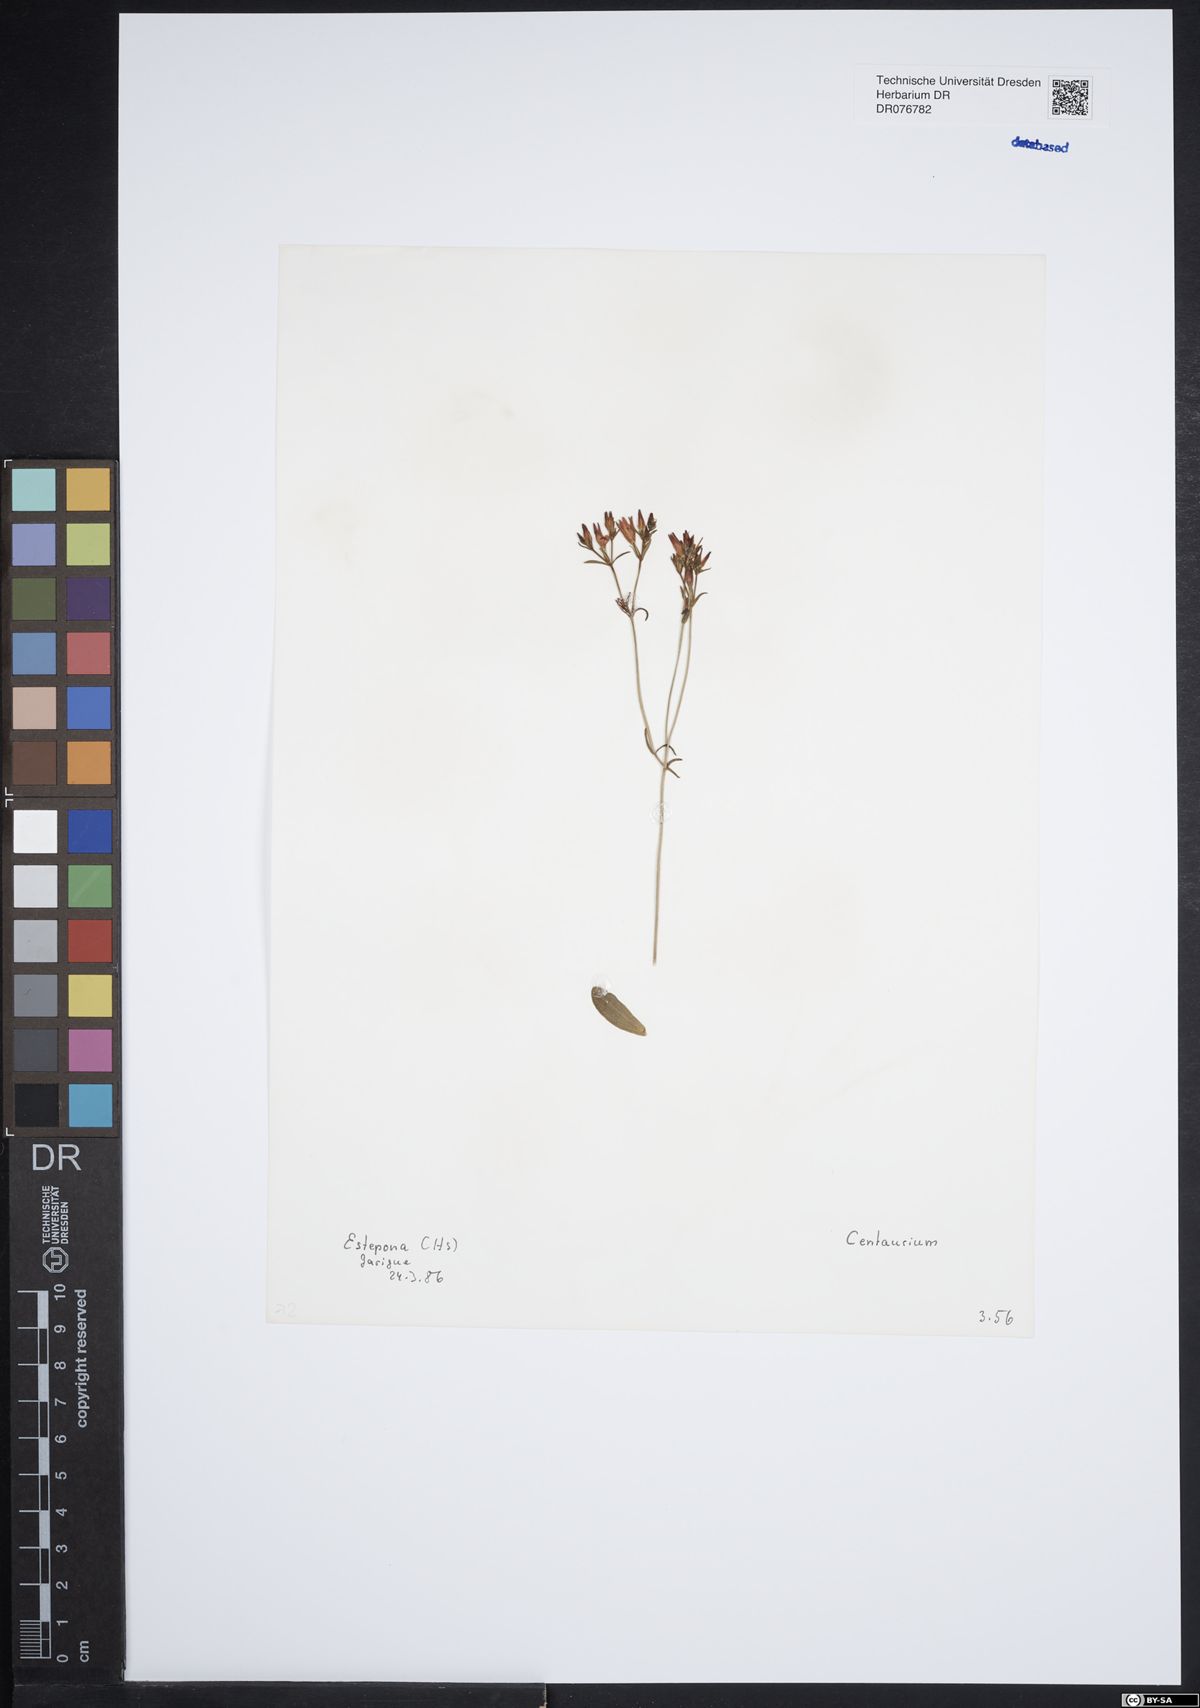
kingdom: Plantae
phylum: Tracheophyta
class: Magnoliopsida
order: Gentianales
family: Gentianaceae
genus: Centaurium
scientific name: Centaurium
